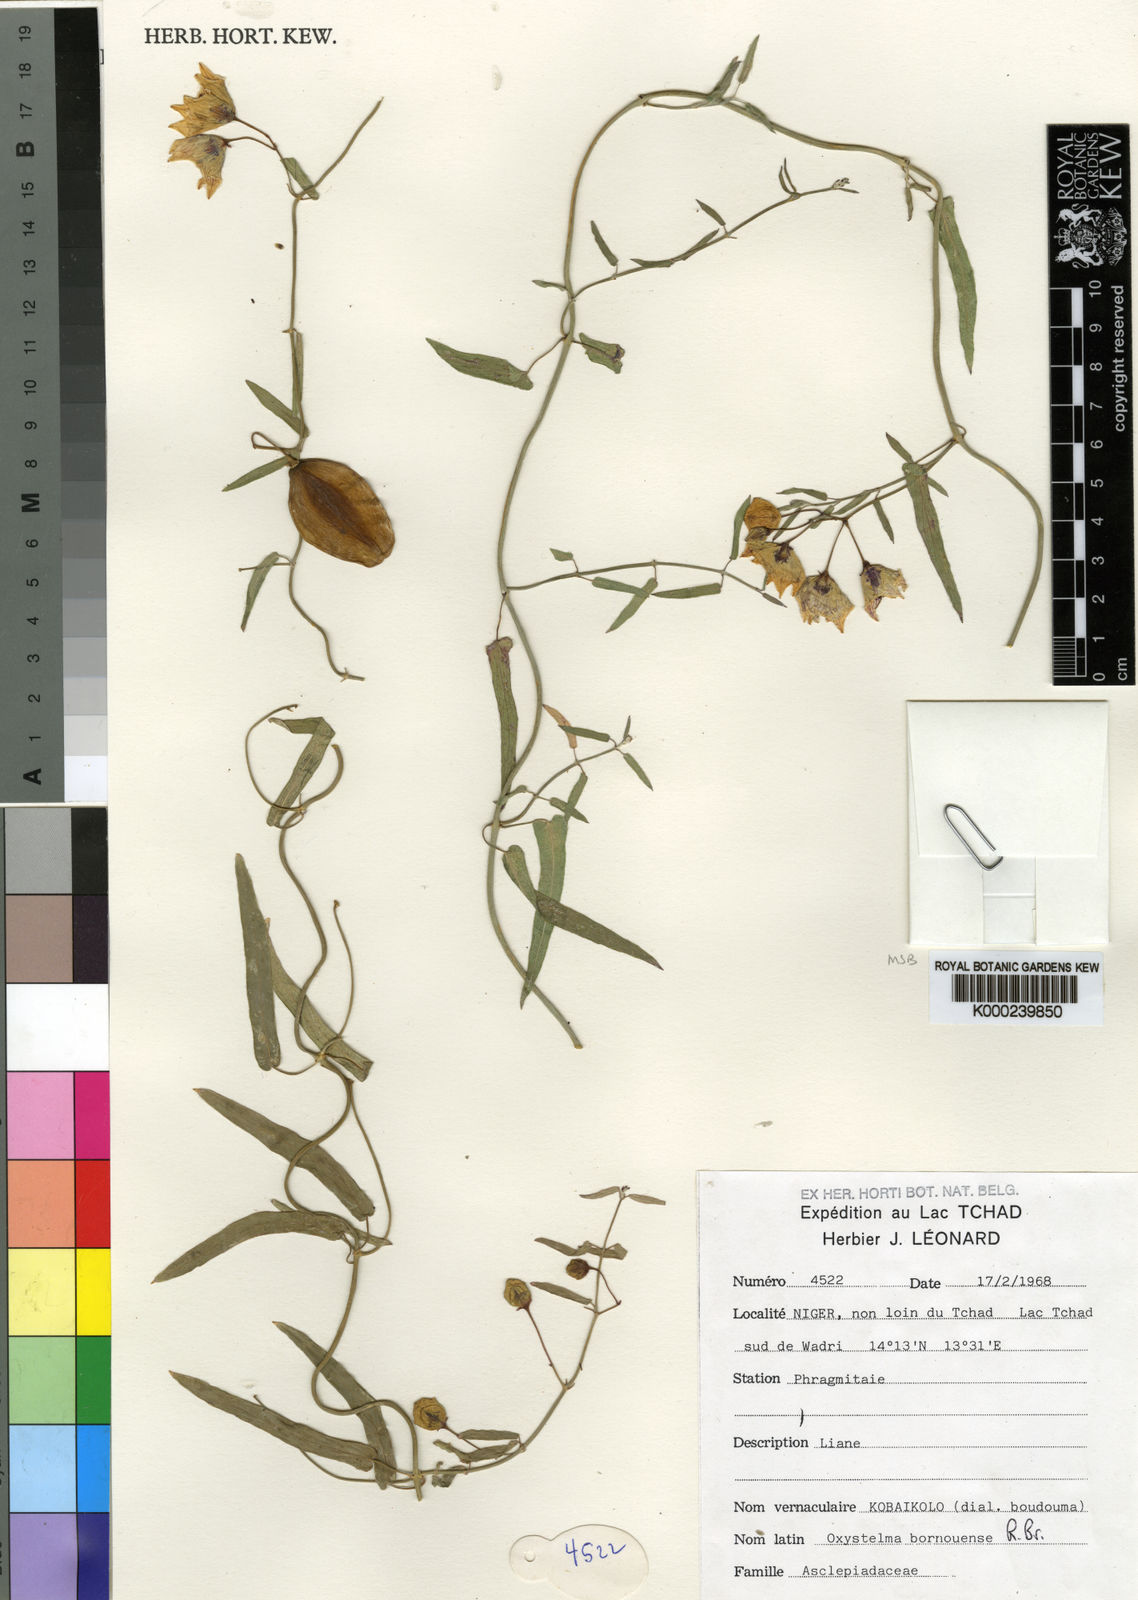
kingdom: Plantae
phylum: Tracheophyta
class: Magnoliopsida
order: Gentianales
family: Apocynaceae
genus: Oxystelma
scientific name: Oxystelma bornouense
